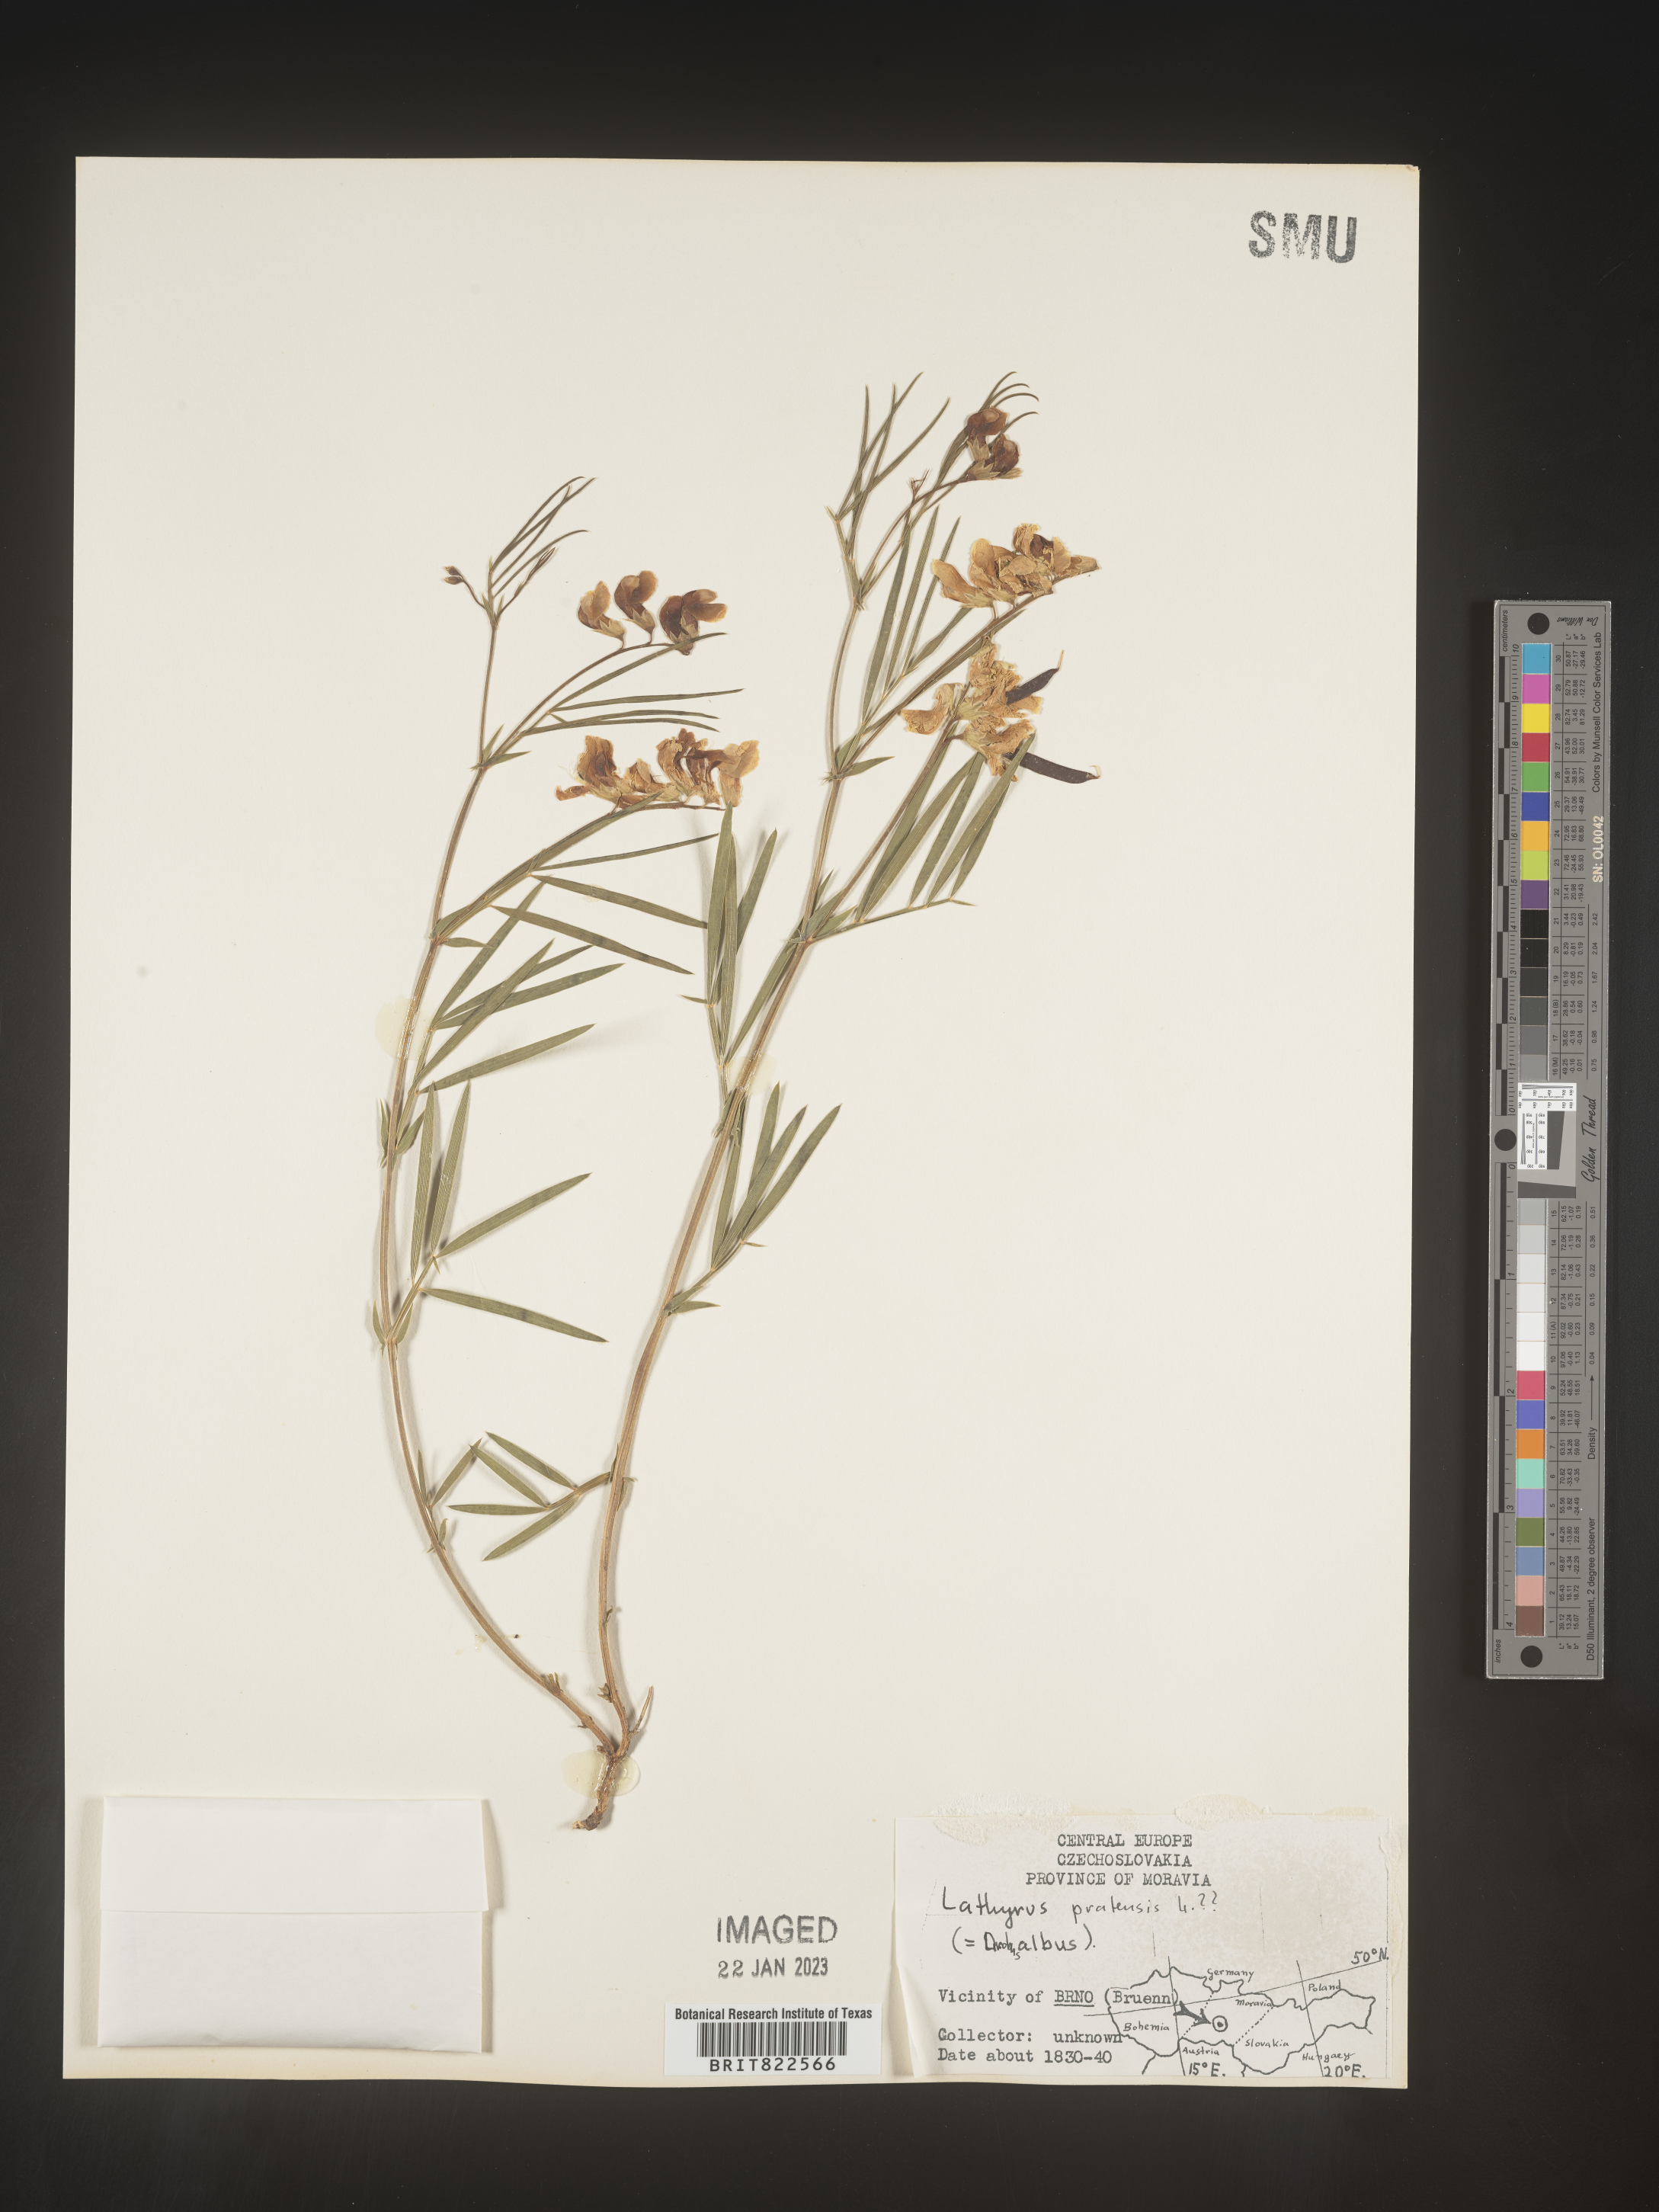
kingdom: Plantae
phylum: Tracheophyta
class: Magnoliopsida
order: Fabales
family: Fabaceae
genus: Lathyrus
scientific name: Lathyrus
